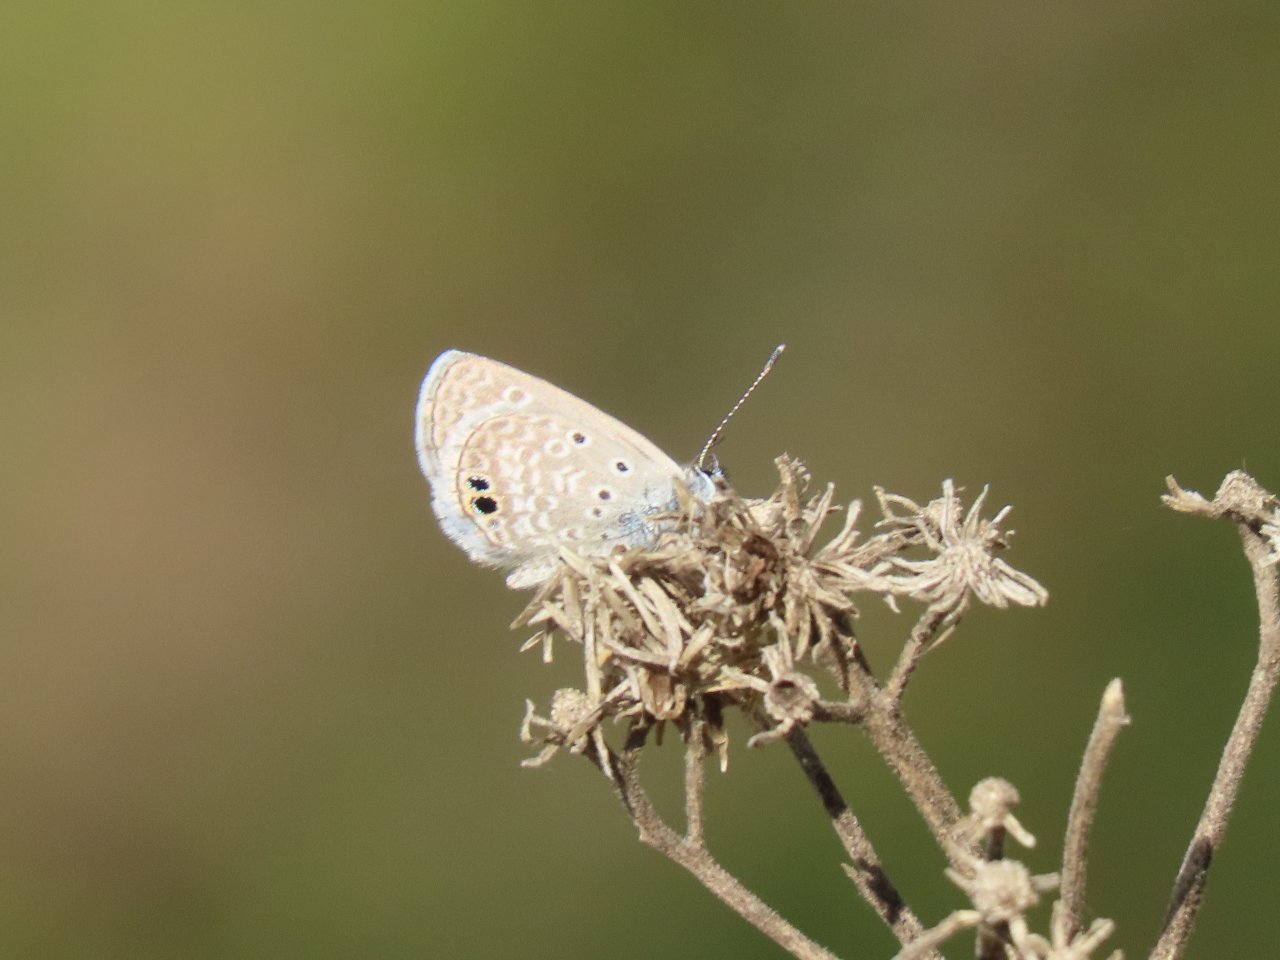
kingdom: Animalia
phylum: Arthropoda
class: Insecta
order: Lepidoptera
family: Lycaenidae
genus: Hemiargus
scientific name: Hemiargus ceraunus
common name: Ceraunus Blue
